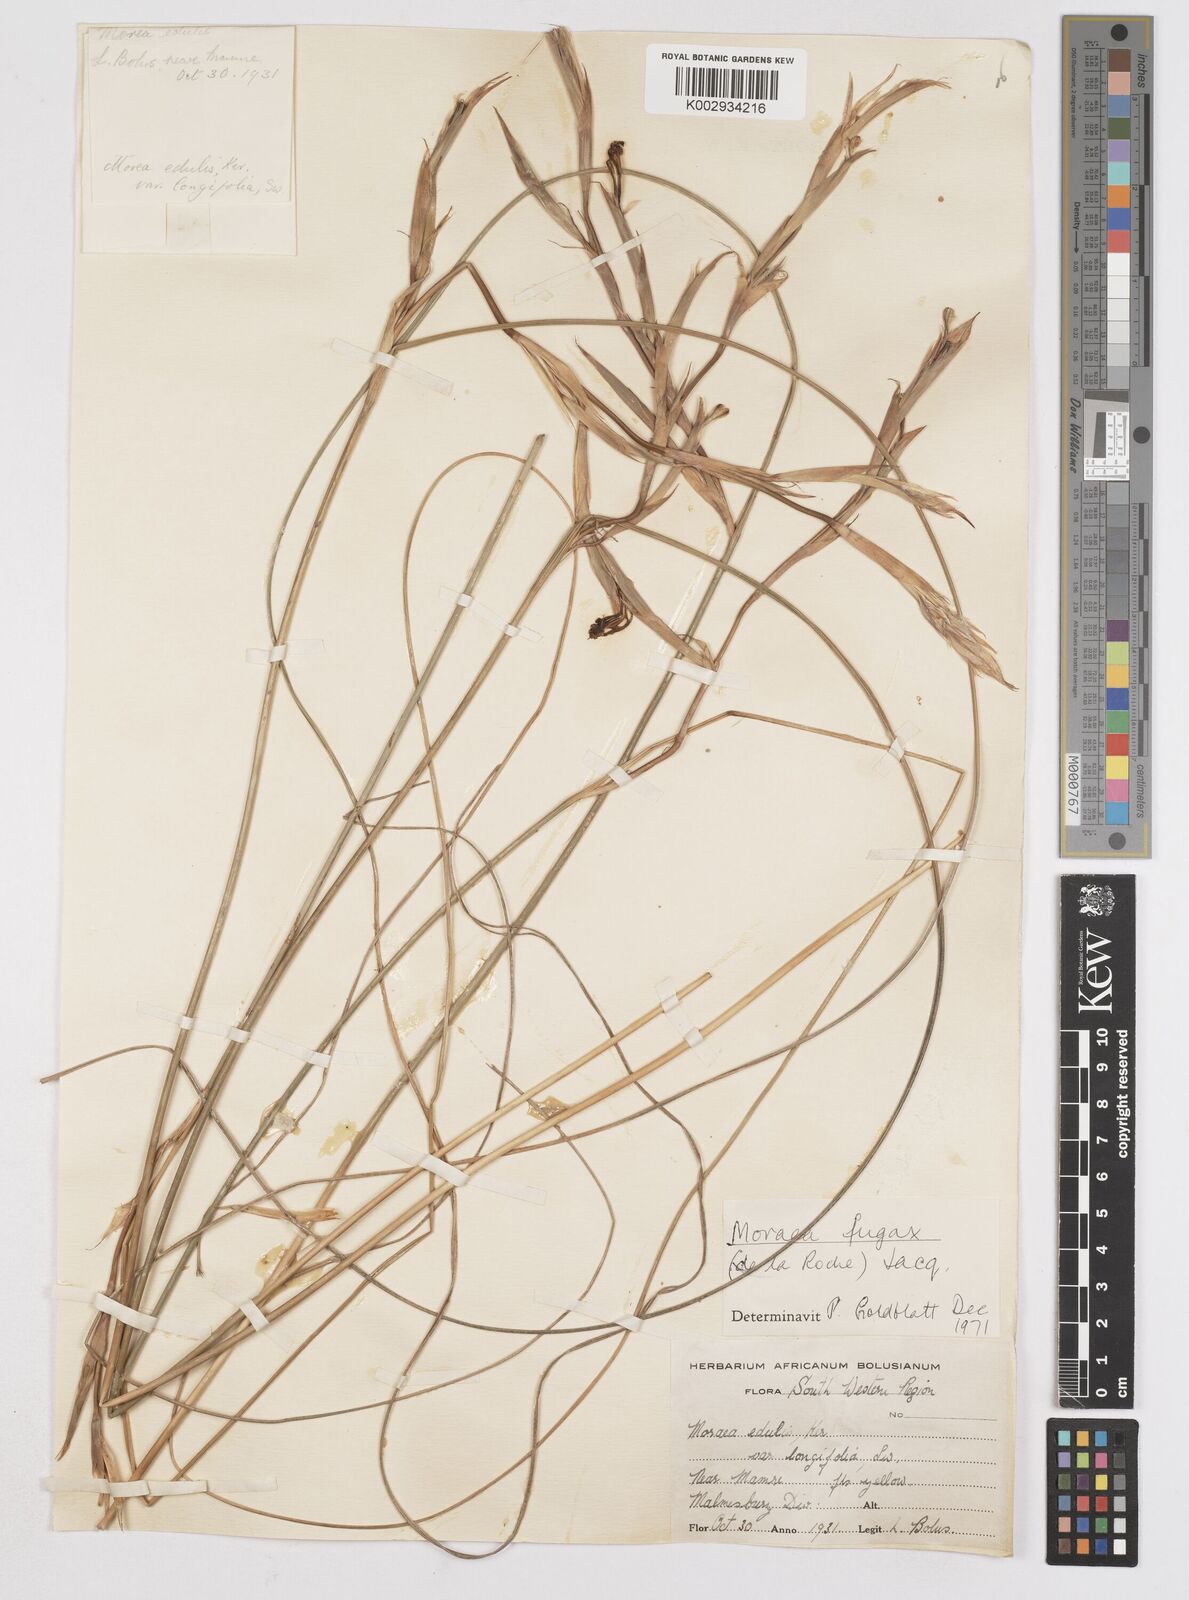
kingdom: Plantae
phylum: Tracheophyta
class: Liliopsida
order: Asparagales
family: Iridaceae
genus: Moraea
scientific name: Moraea fugax
